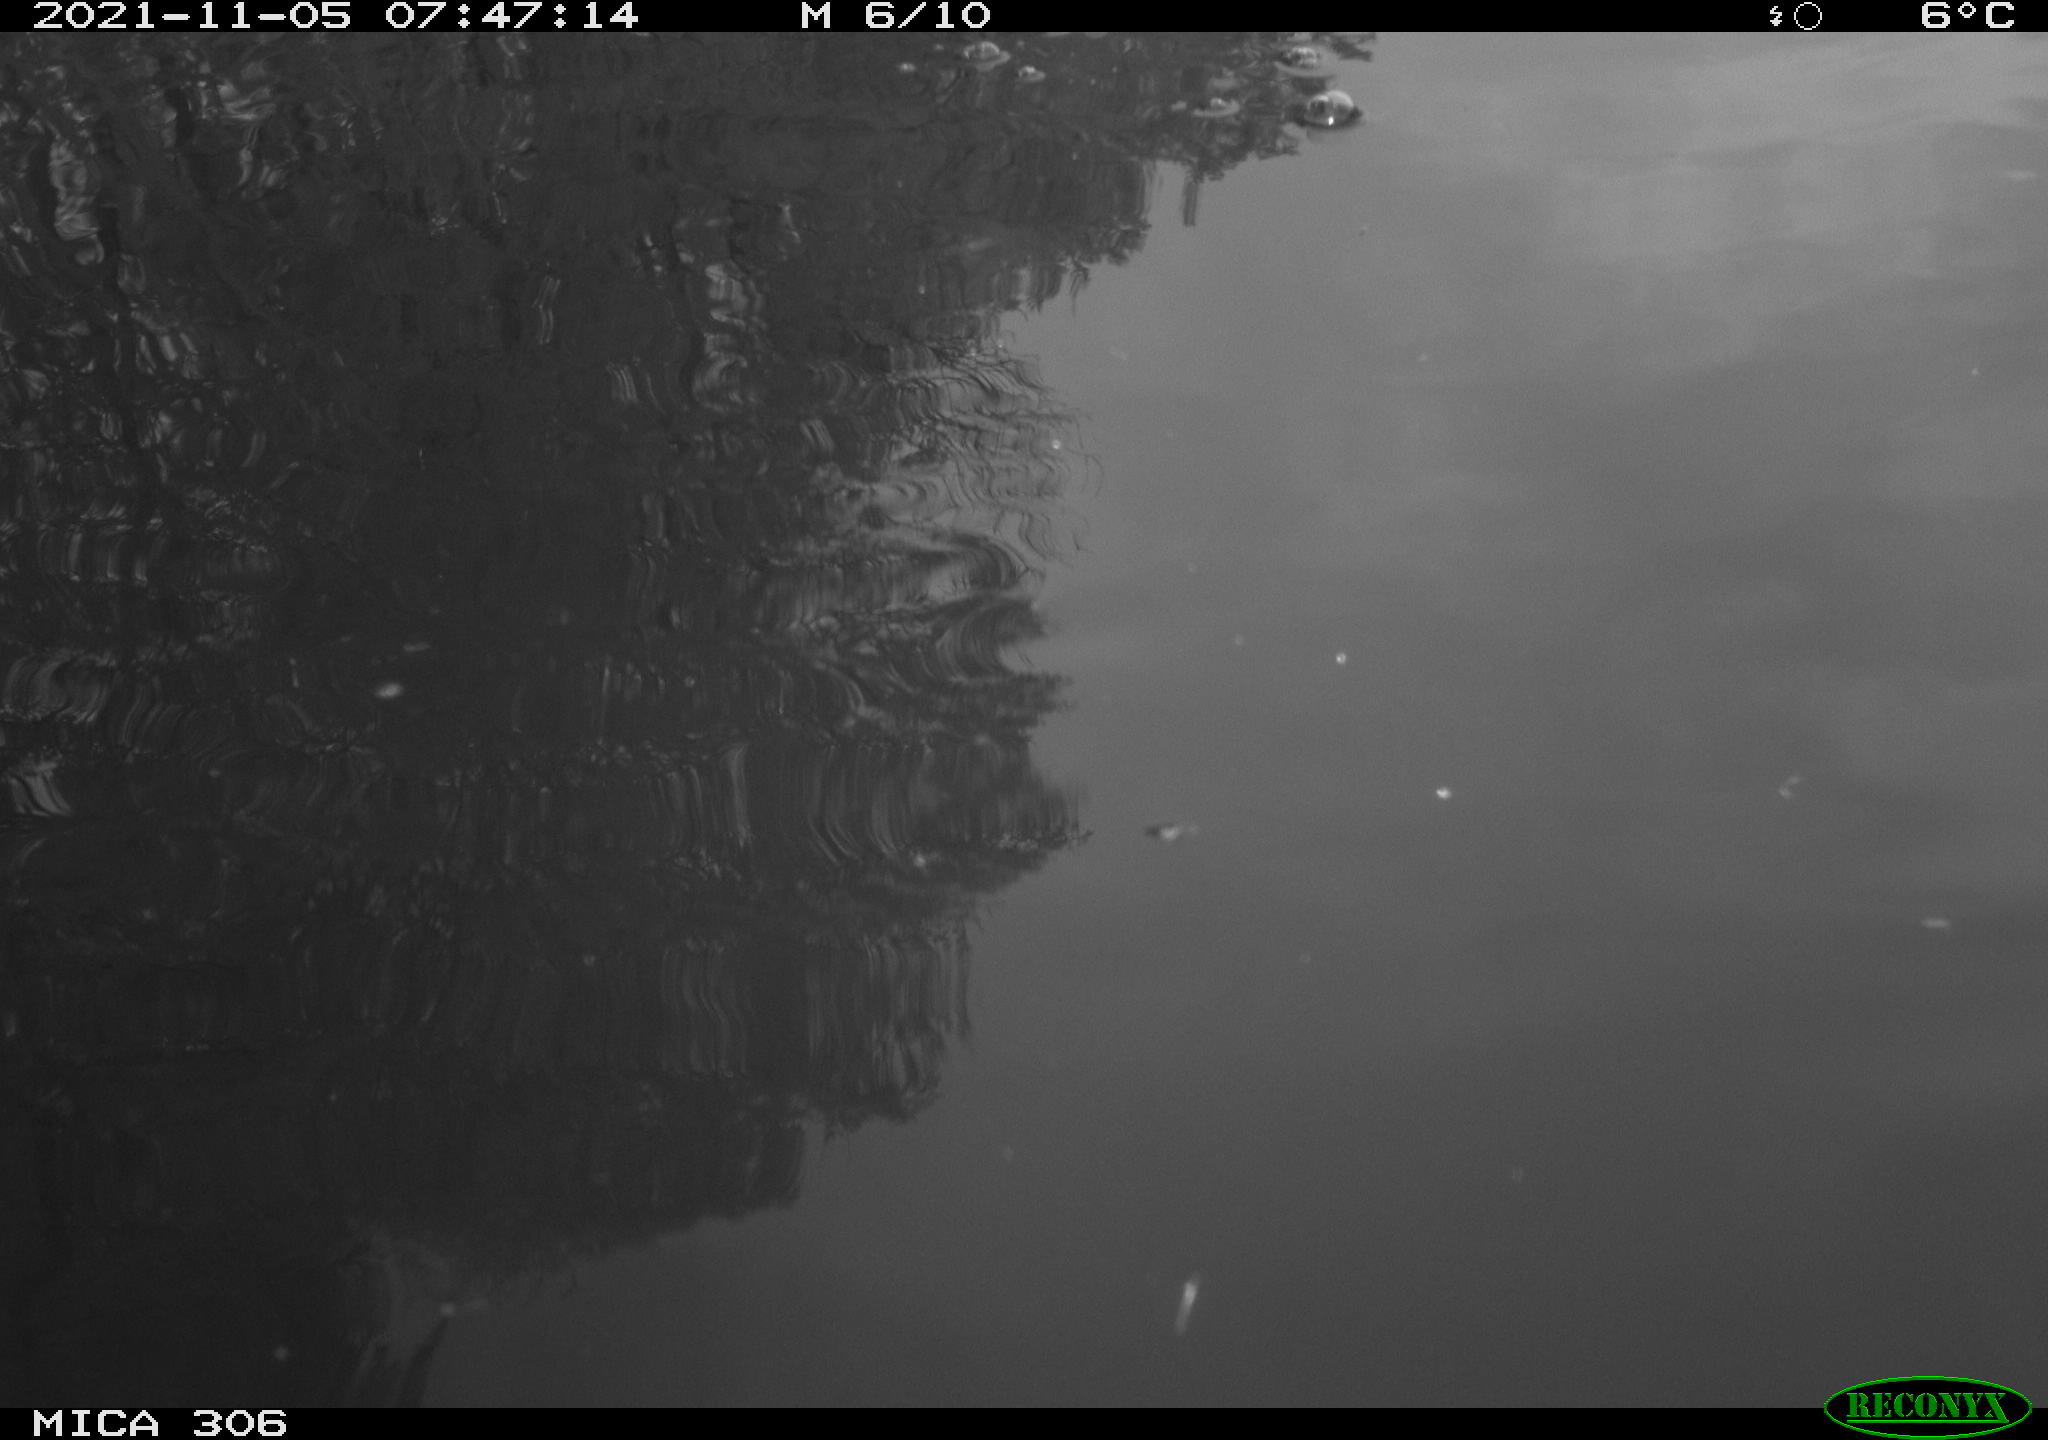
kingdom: Animalia
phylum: Chordata
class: Aves
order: Gruiformes
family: Rallidae
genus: Gallinula
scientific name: Gallinula chloropus
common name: Common moorhen
